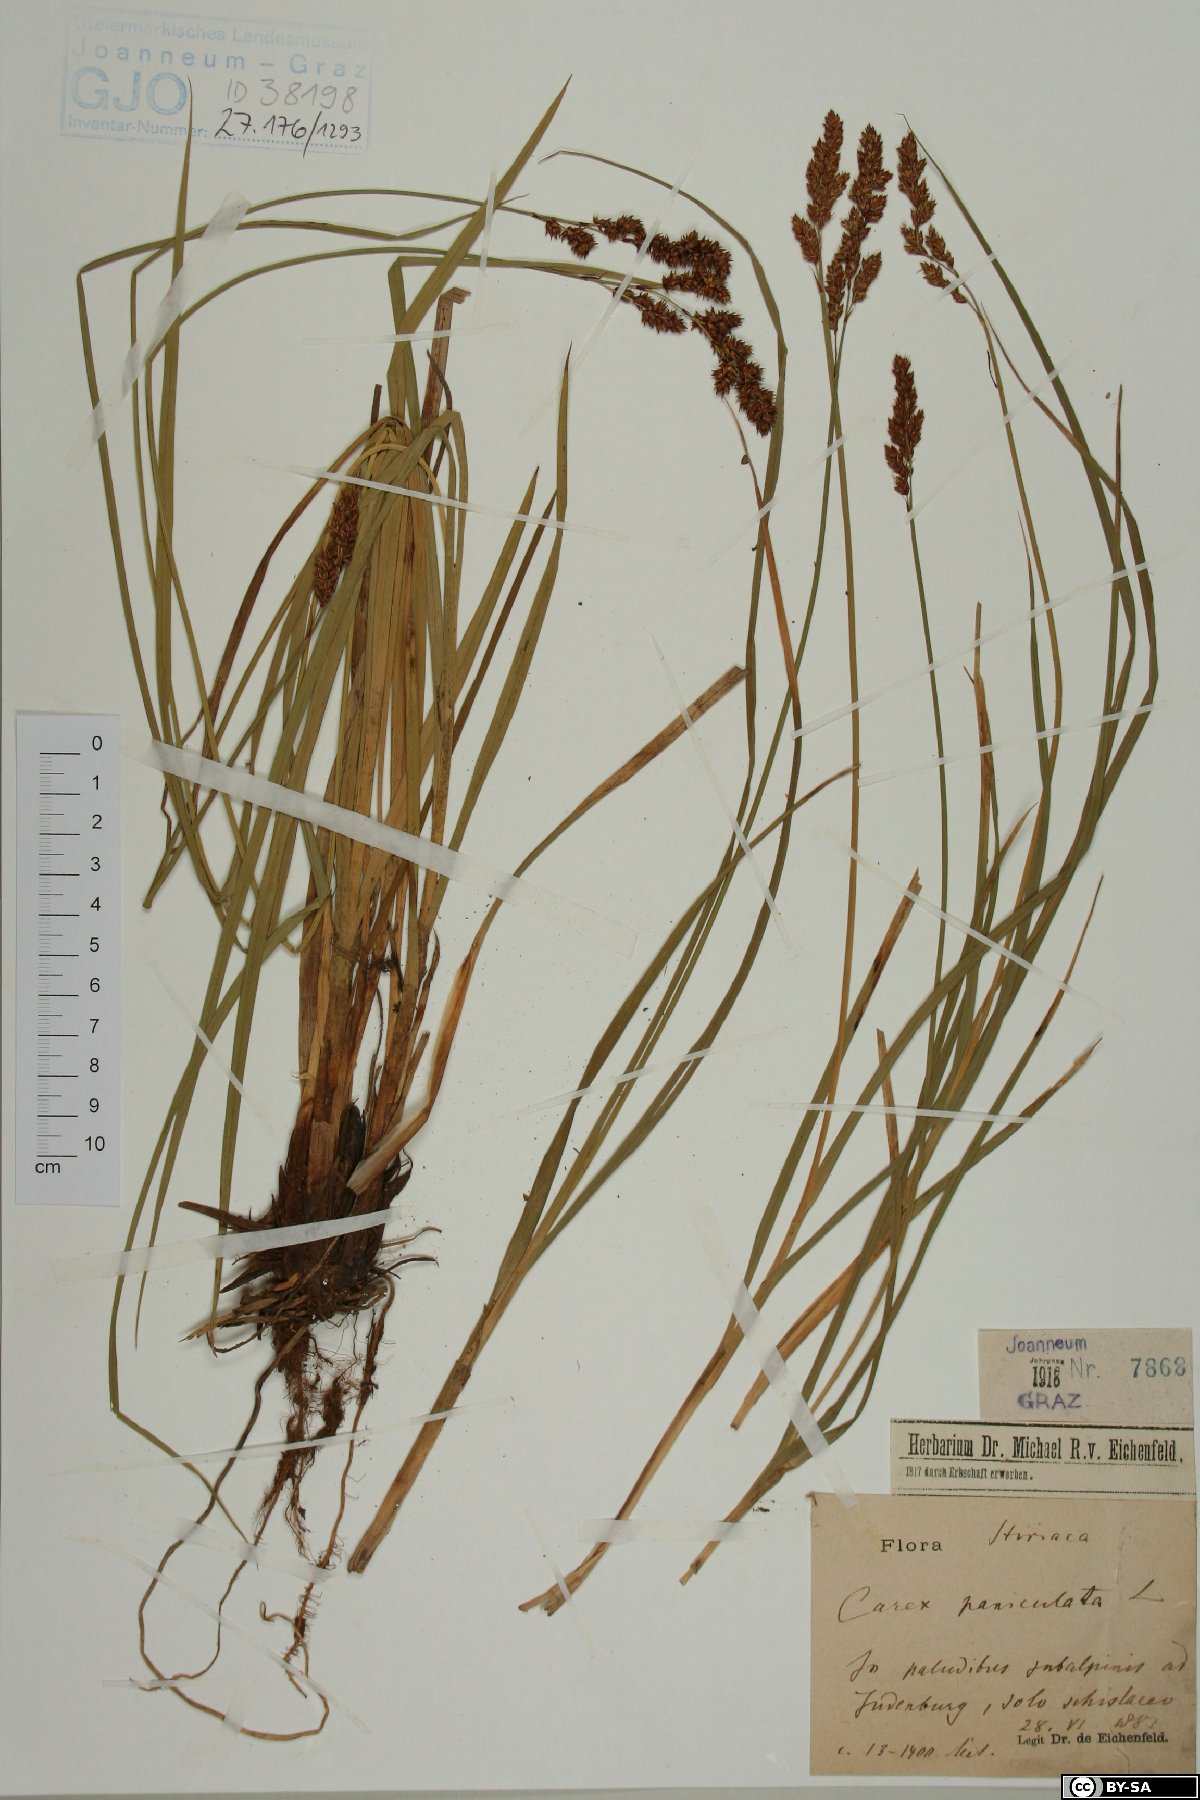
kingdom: Plantae
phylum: Tracheophyta
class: Liliopsida
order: Poales
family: Cyperaceae
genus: Carex
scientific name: Carex paniculata
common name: Greater tussock-sedge
